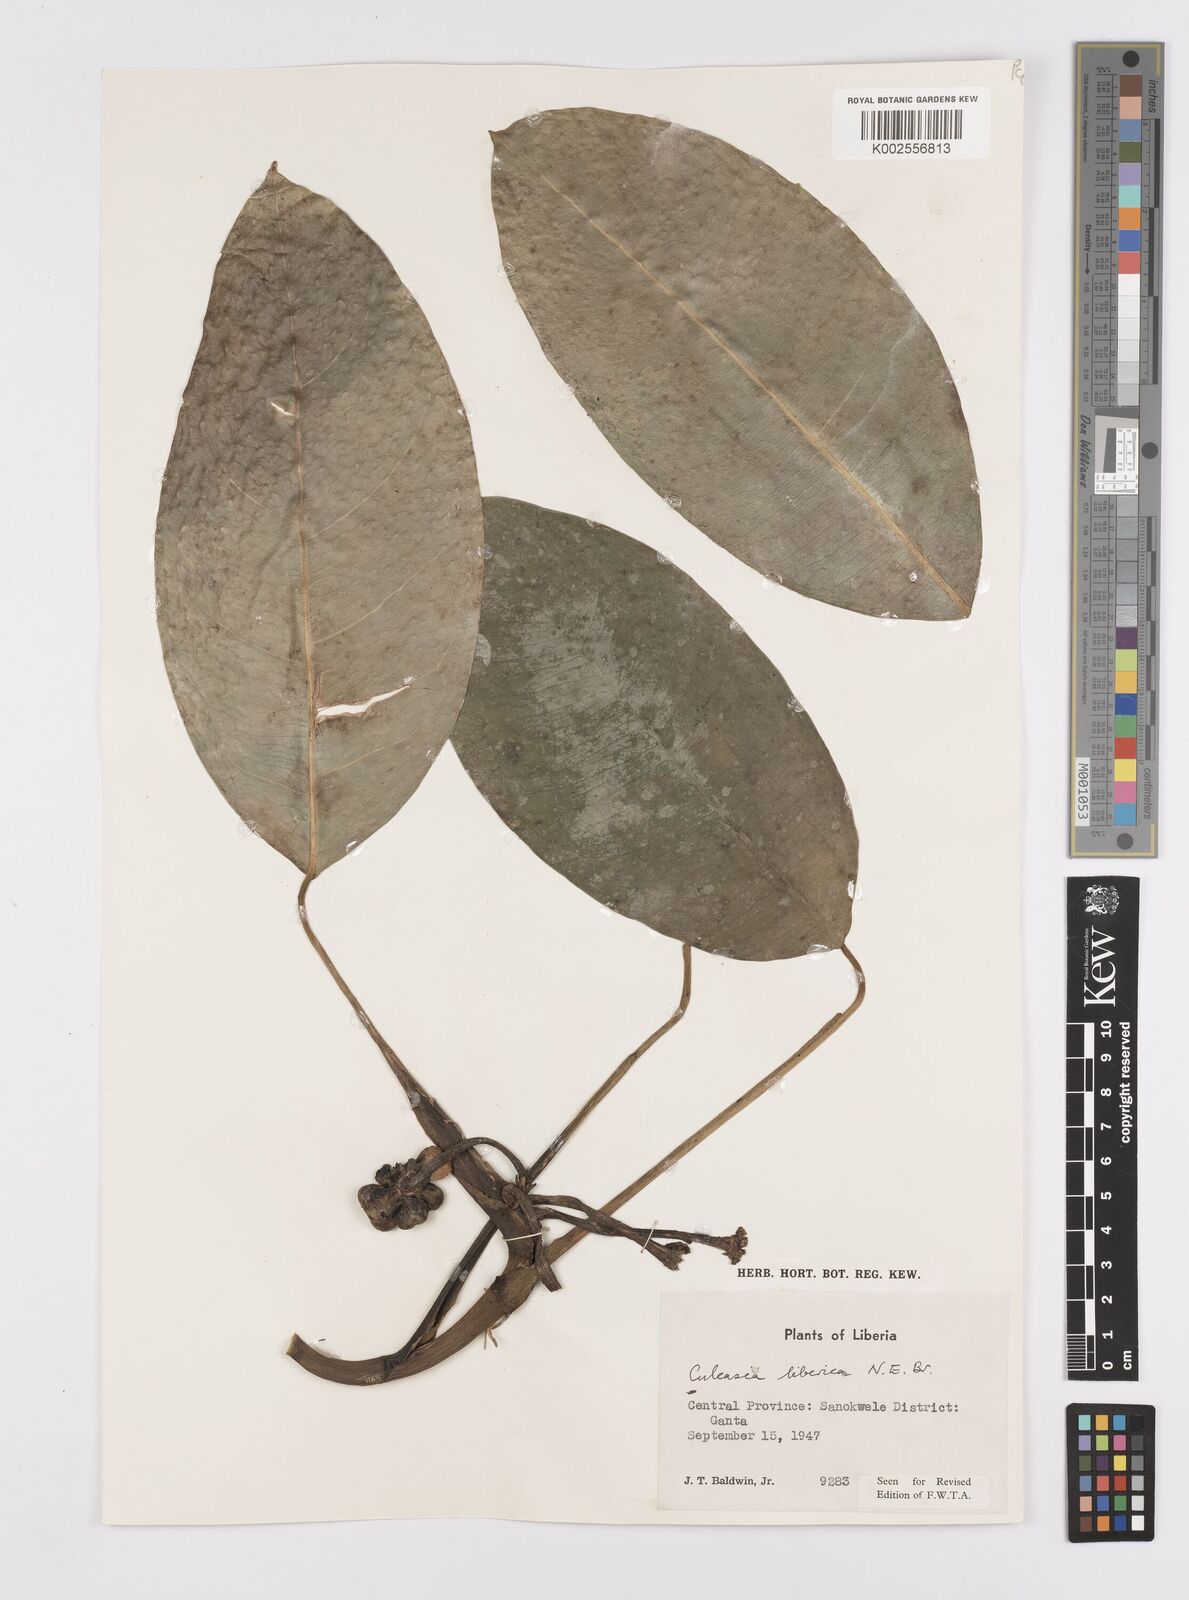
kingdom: Plantae
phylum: Tracheophyta
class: Liliopsida
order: Alismatales
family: Araceae
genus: Culcasia
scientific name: Culcasia liberica
